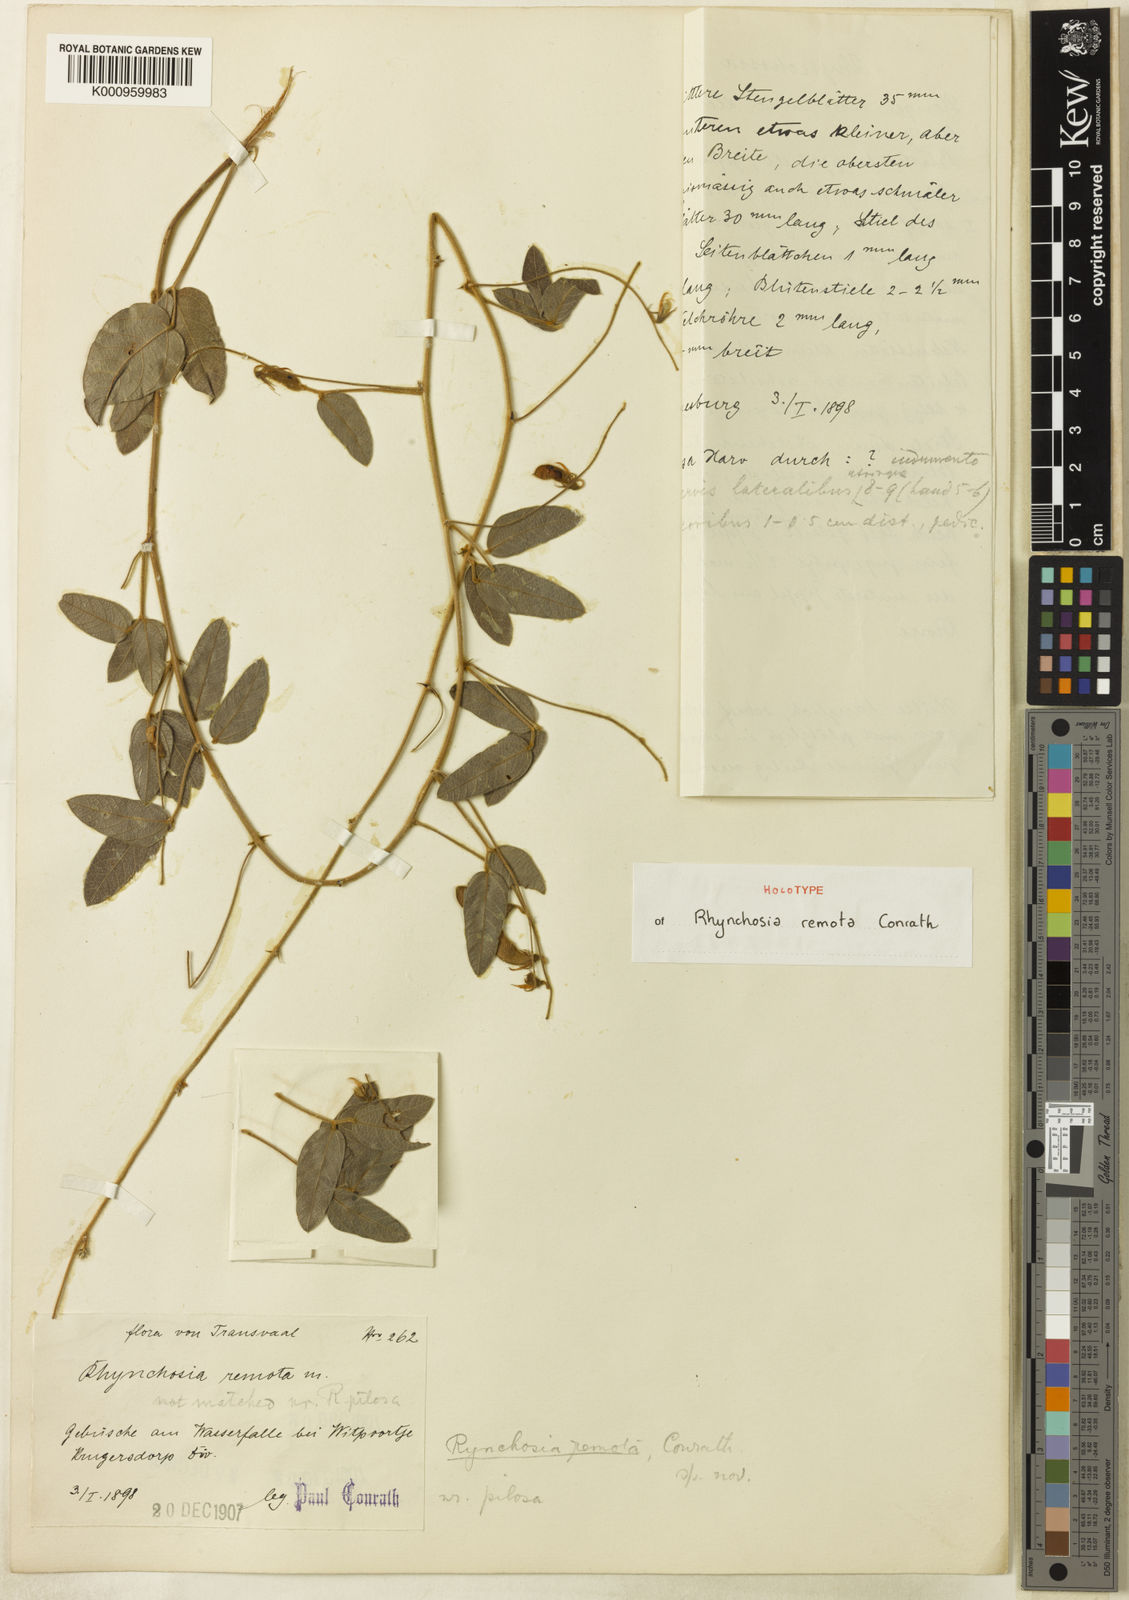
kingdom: Plantae
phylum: Tracheophyta
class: Magnoliopsida
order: Fabales
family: Fabaceae
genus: Rhynchosia
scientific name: Rhynchosia totta
